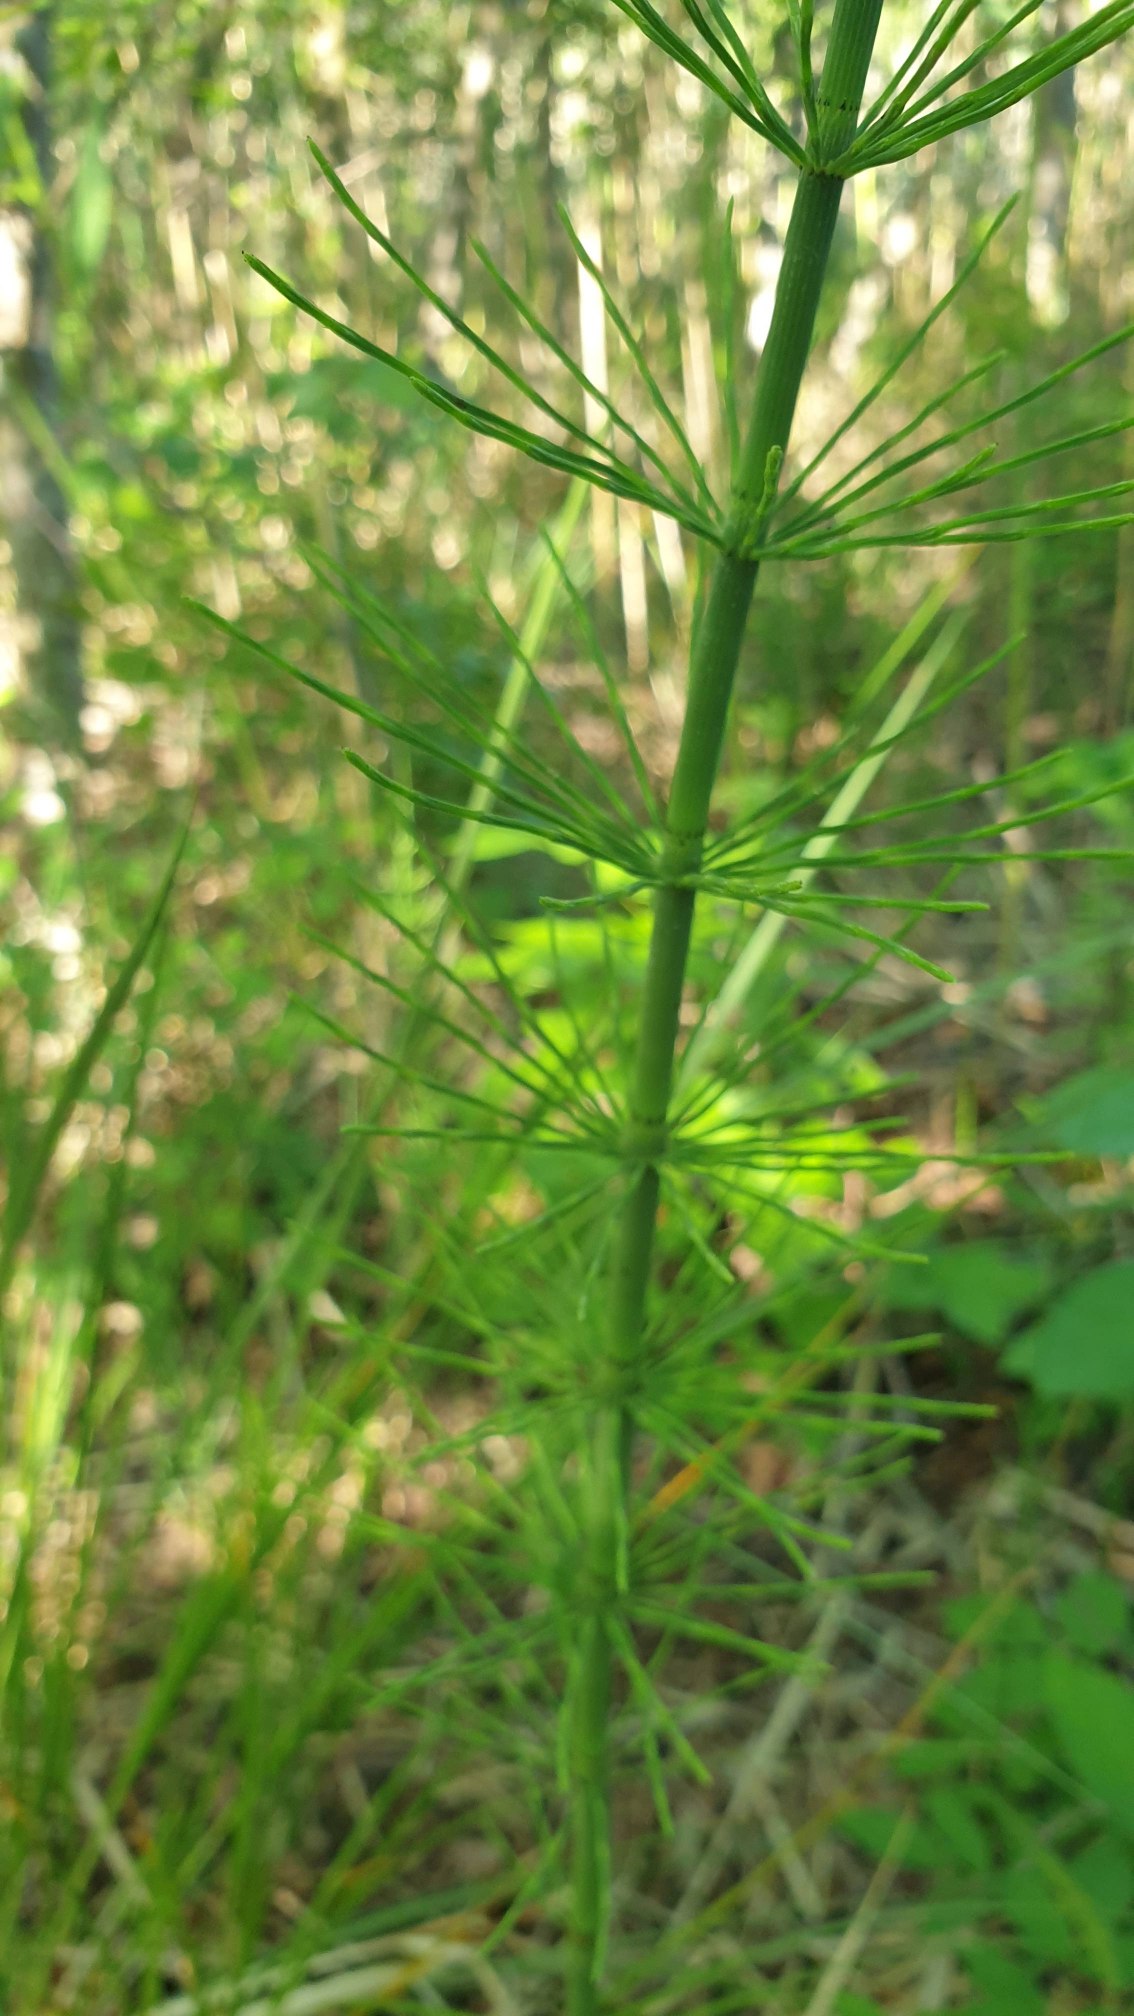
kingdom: Plantae
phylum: Tracheophyta
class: Polypodiopsida
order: Equisetales
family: Equisetaceae
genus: Equisetum
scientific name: Equisetum fluviatile
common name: Dynd-padderok
